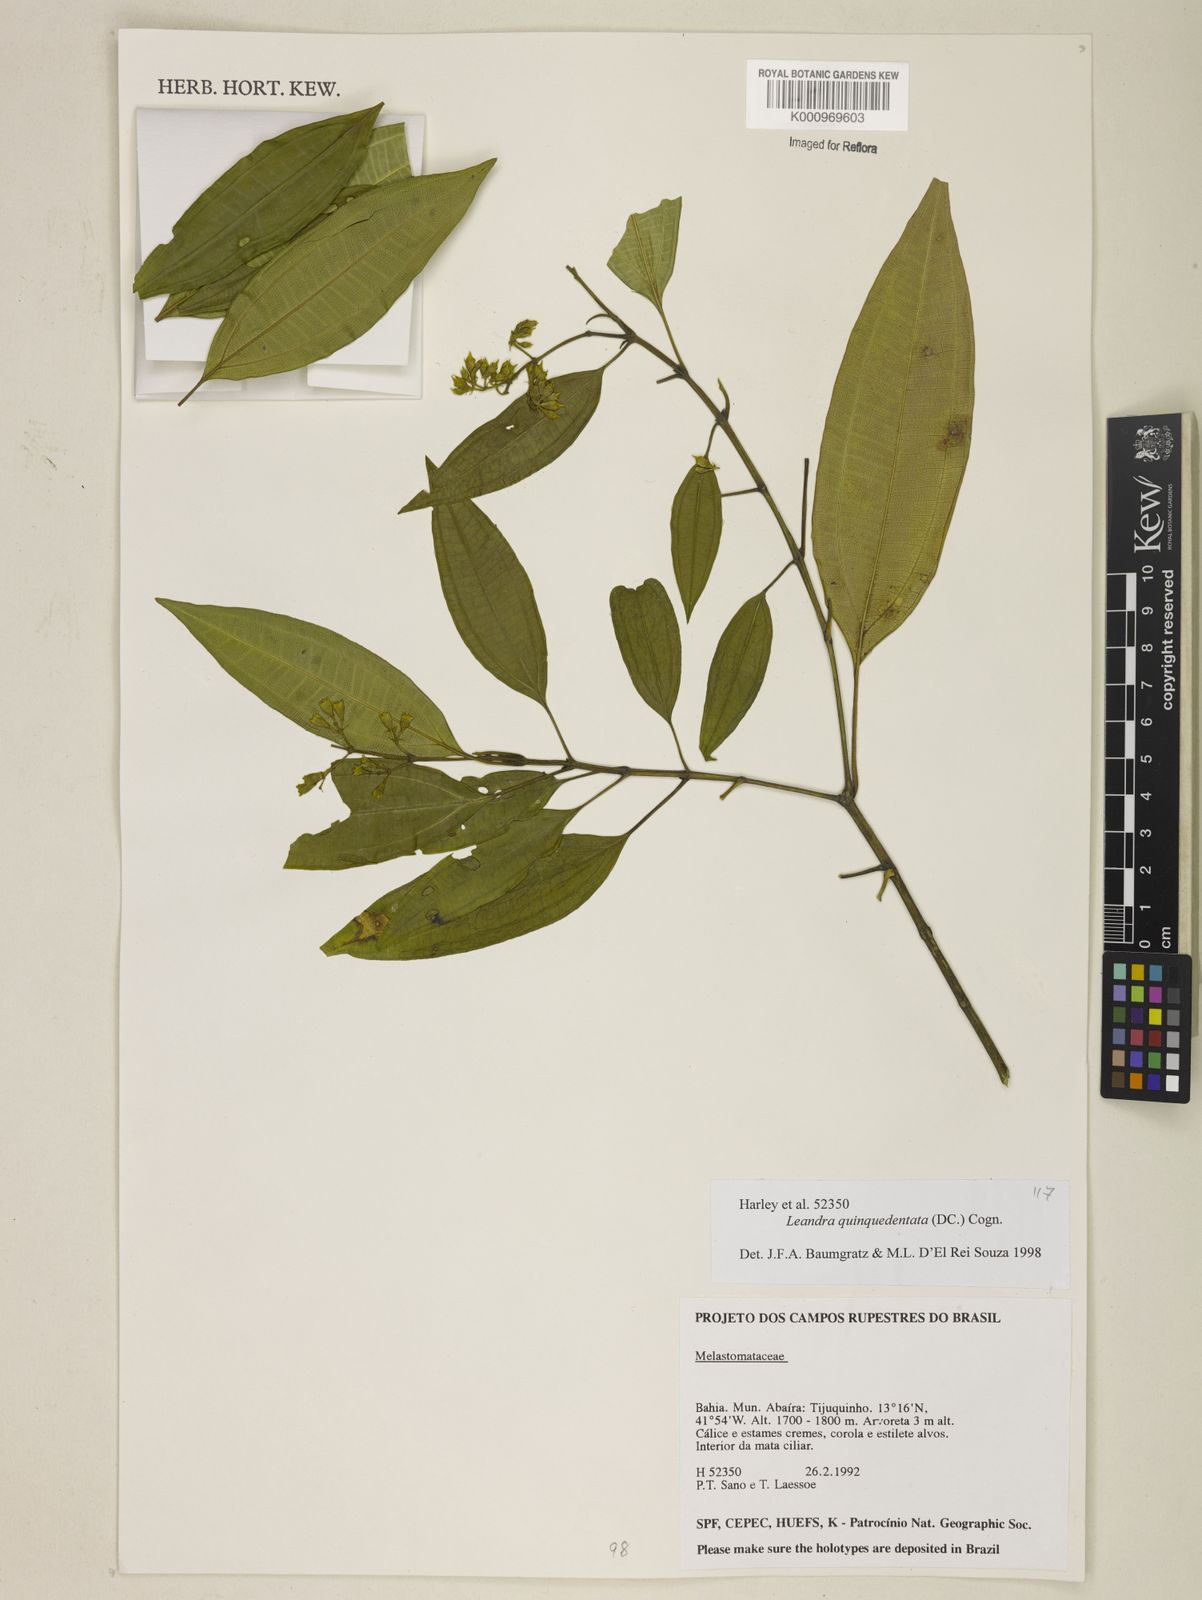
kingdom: Plantae
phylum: Tracheophyta
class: Magnoliopsida
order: Myrtales
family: Melastomataceae
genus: Miconia
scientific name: Miconia quinquedentata
